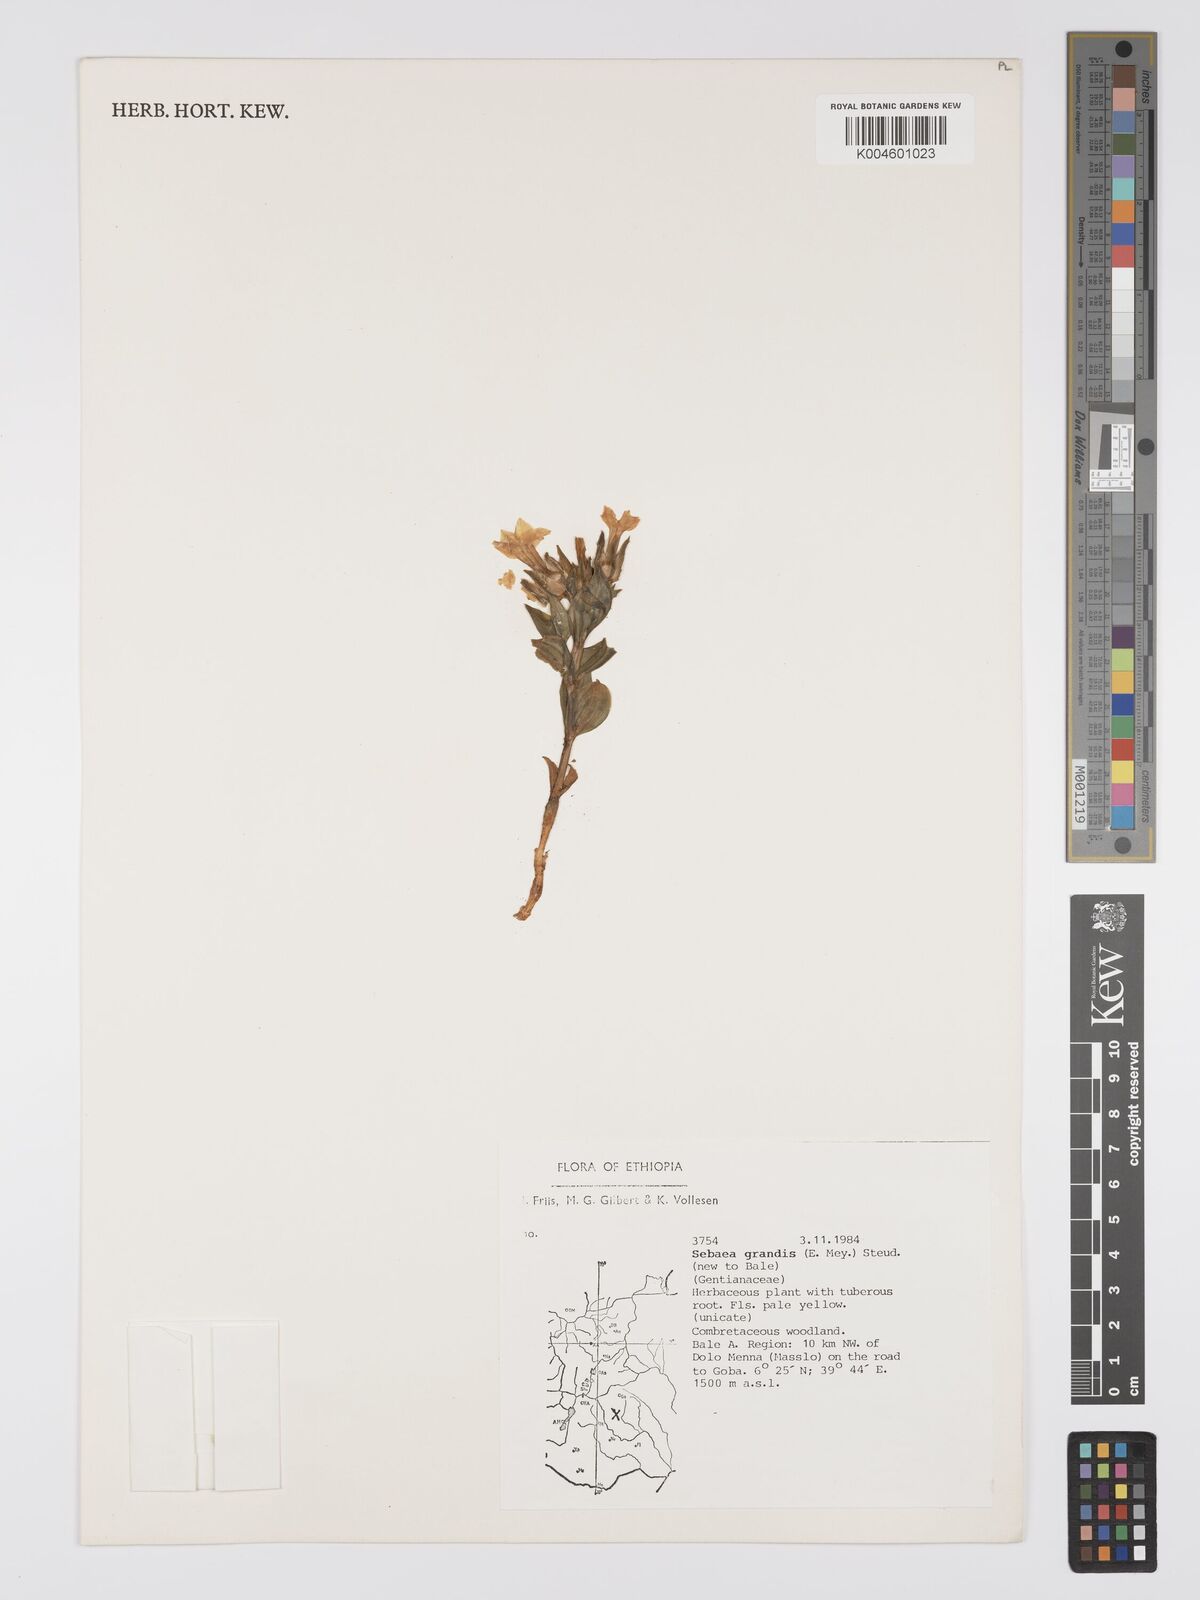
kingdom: Plantae
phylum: Tracheophyta
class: Magnoliopsida
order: Gentianales
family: Gentianaceae
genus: Exochaenium
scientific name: Exochaenium grande
